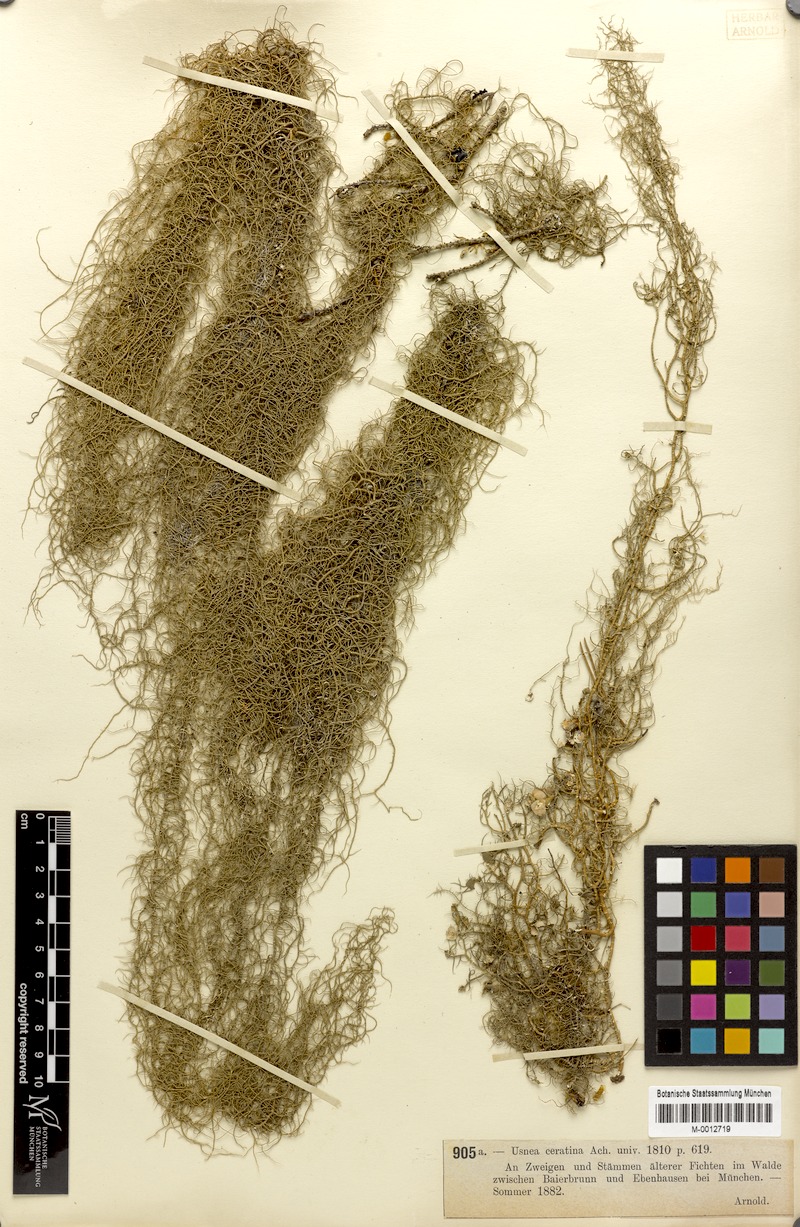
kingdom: Fungi
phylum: Ascomycota
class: Lecanoromycetes
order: Lecanorales
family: Parmeliaceae
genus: Usnea
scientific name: Usnea ceratina
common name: Warty beard lichen
